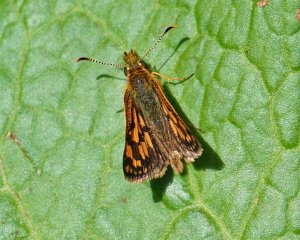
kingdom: Animalia
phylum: Arthropoda
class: Insecta
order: Lepidoptera
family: Hesperiidae
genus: Carterocephalus
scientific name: Carterocephalus palaemon
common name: Chequered Skipper
